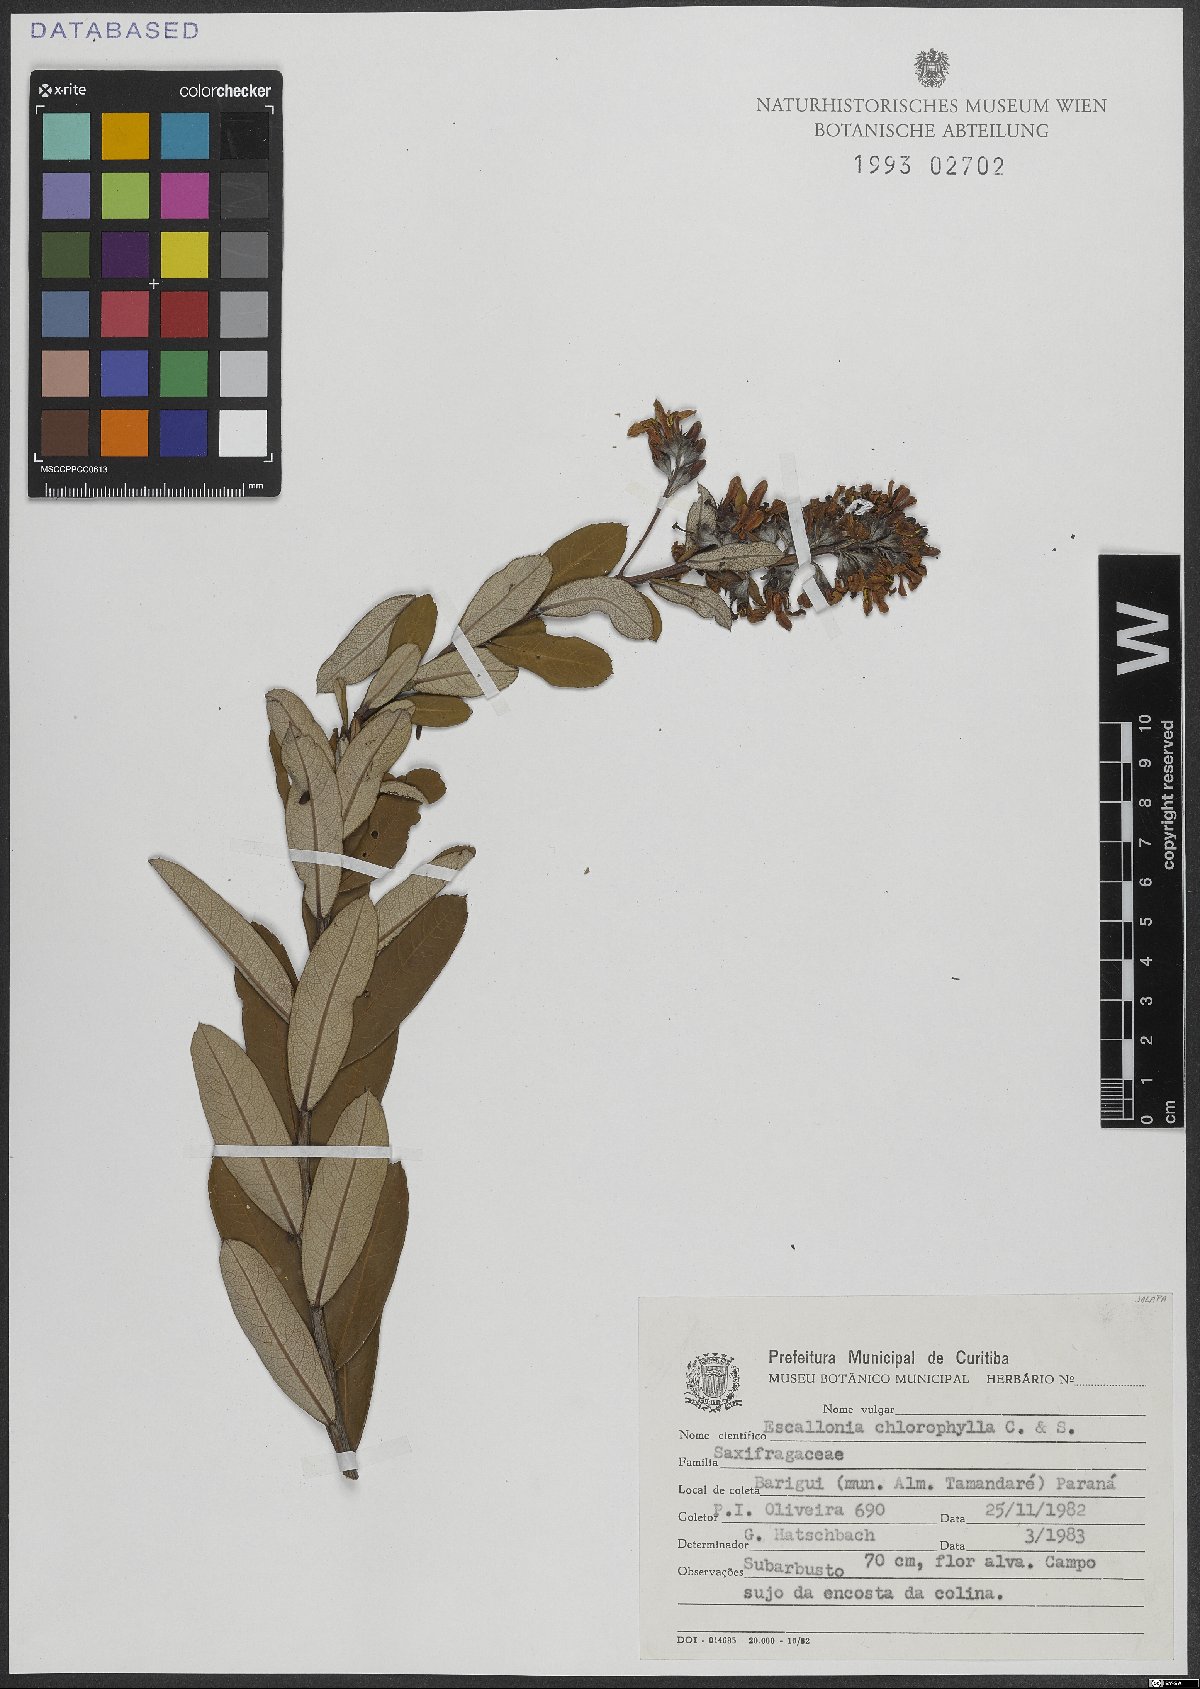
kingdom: Plantae
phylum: Tracheophyta
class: Magnoliopsida
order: Escalloniales
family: Escalloniaceae
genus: Escallonia
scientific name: Escallonia chlorophylla
